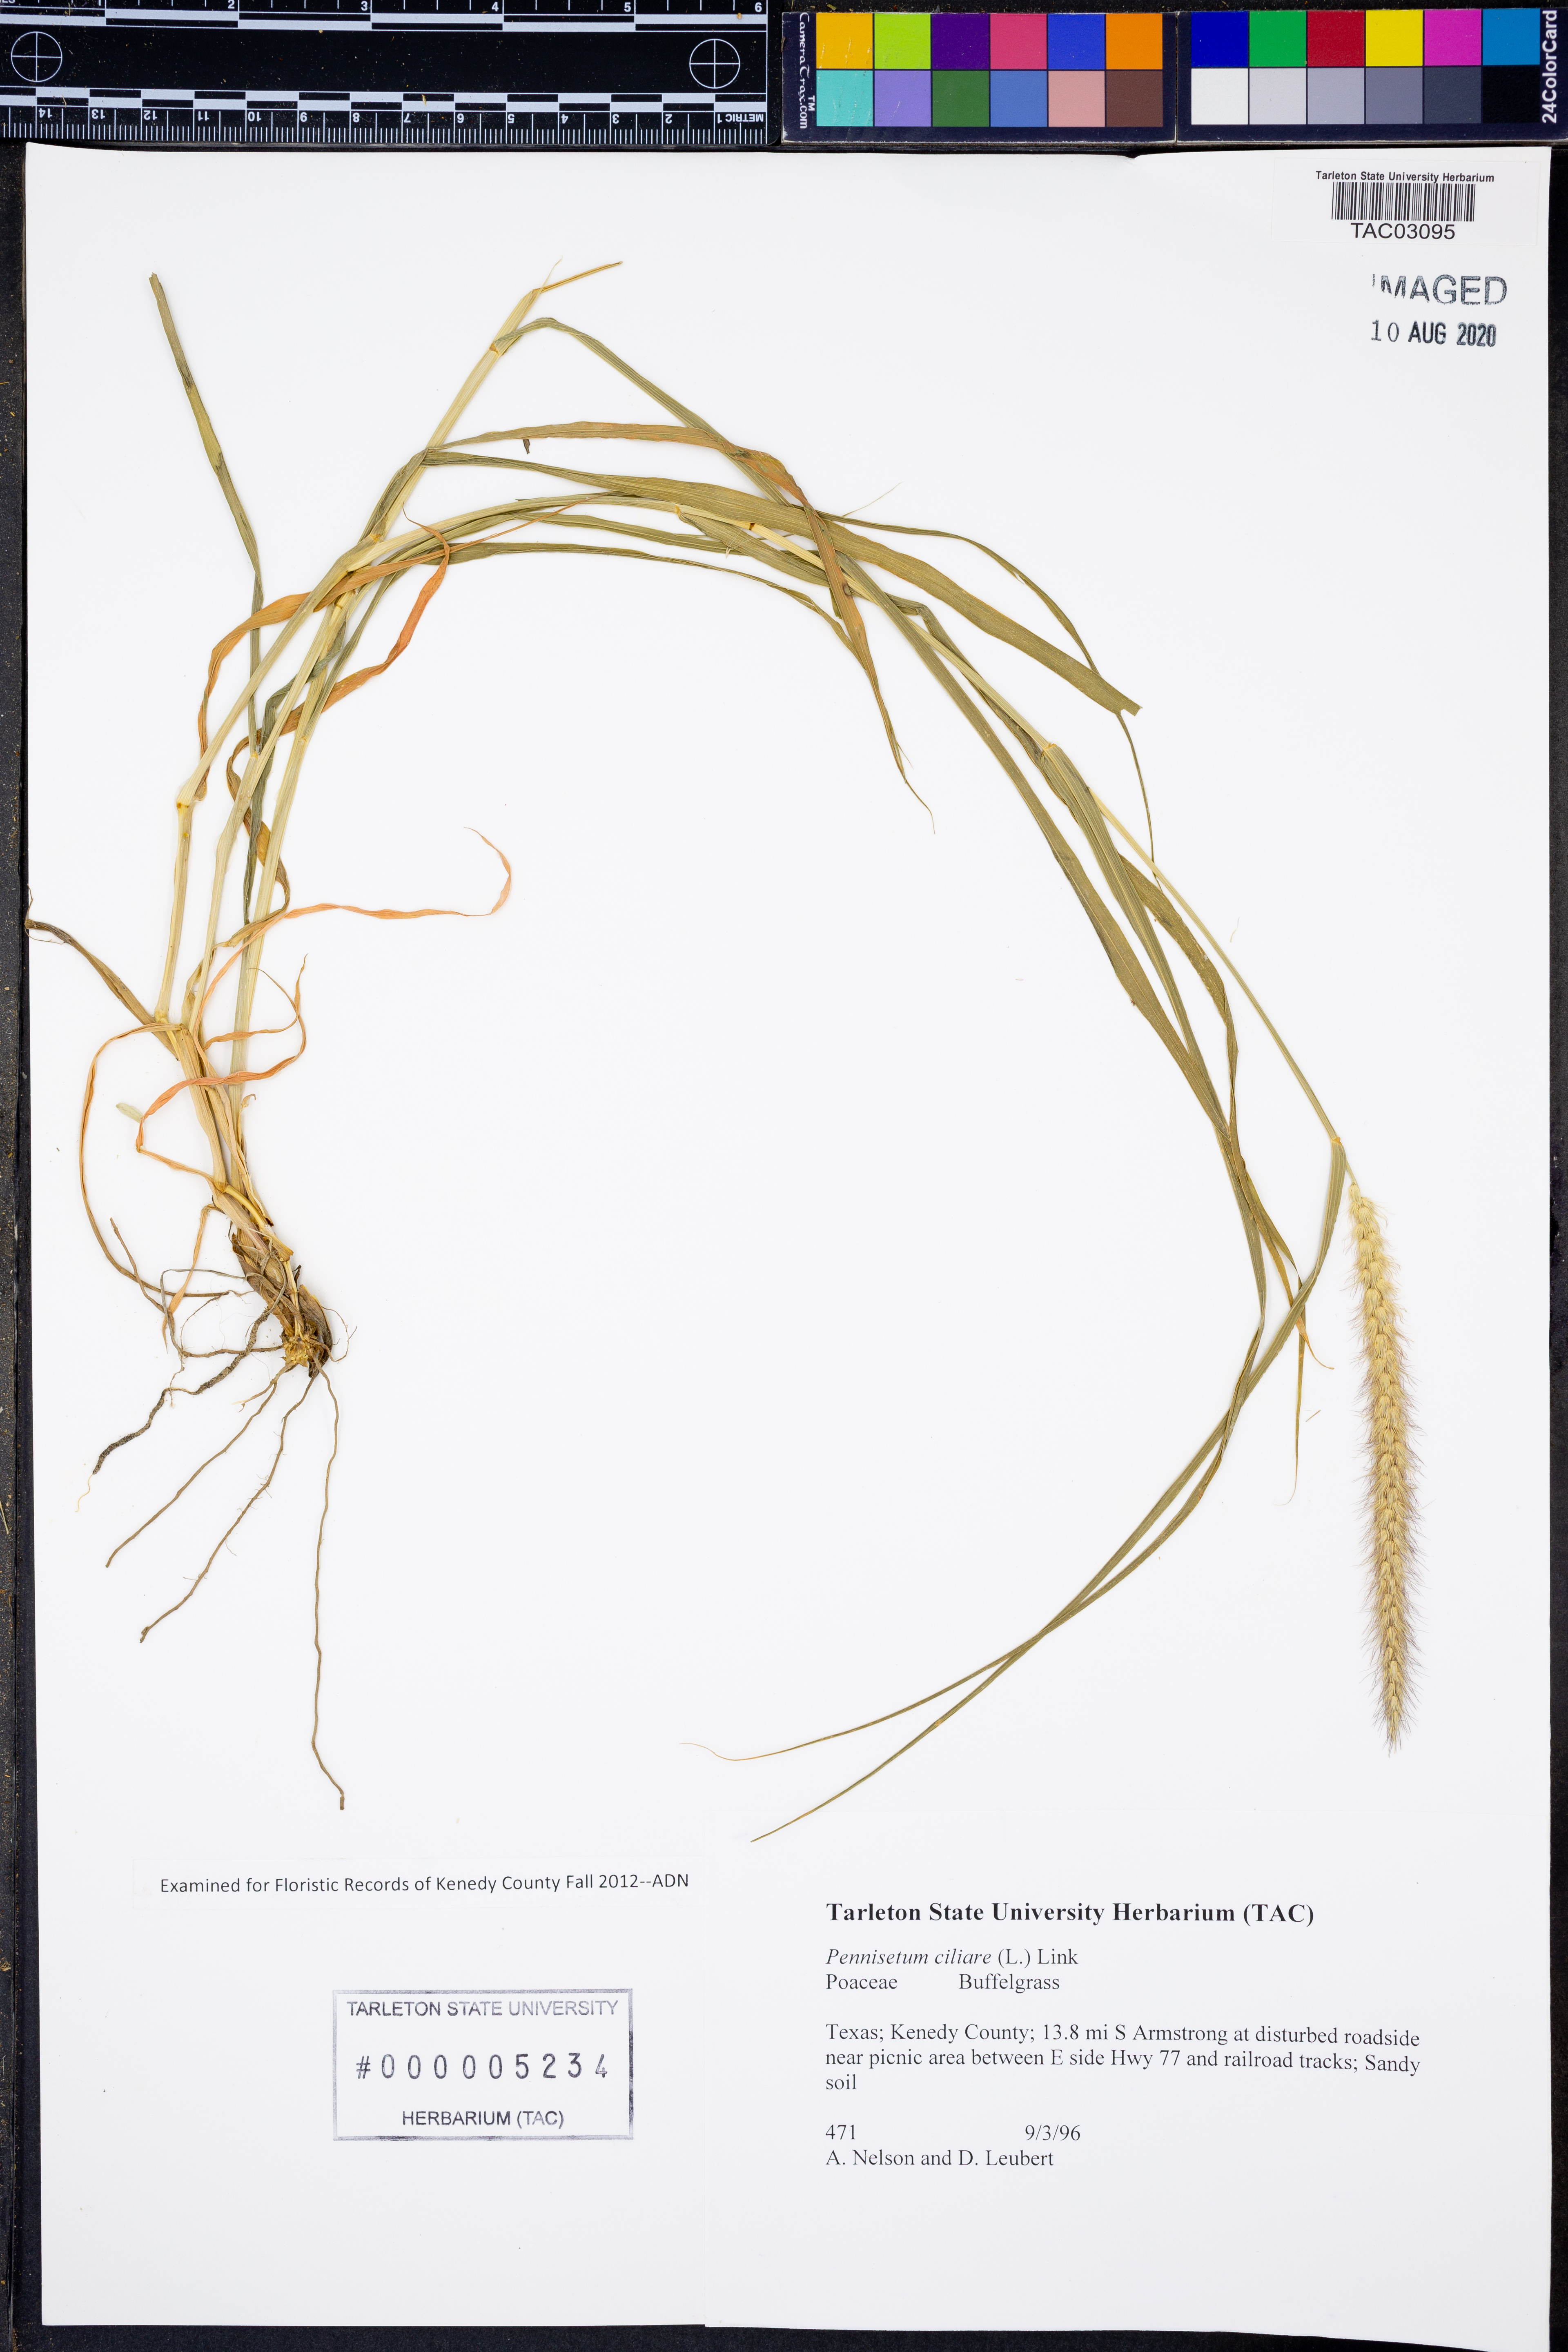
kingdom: Plantae
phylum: Tracheophyta
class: Liliopsida
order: Poales
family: Poaceae
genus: Cenchrus
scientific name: Cenchrus ciliaris
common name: Buffelgrass
